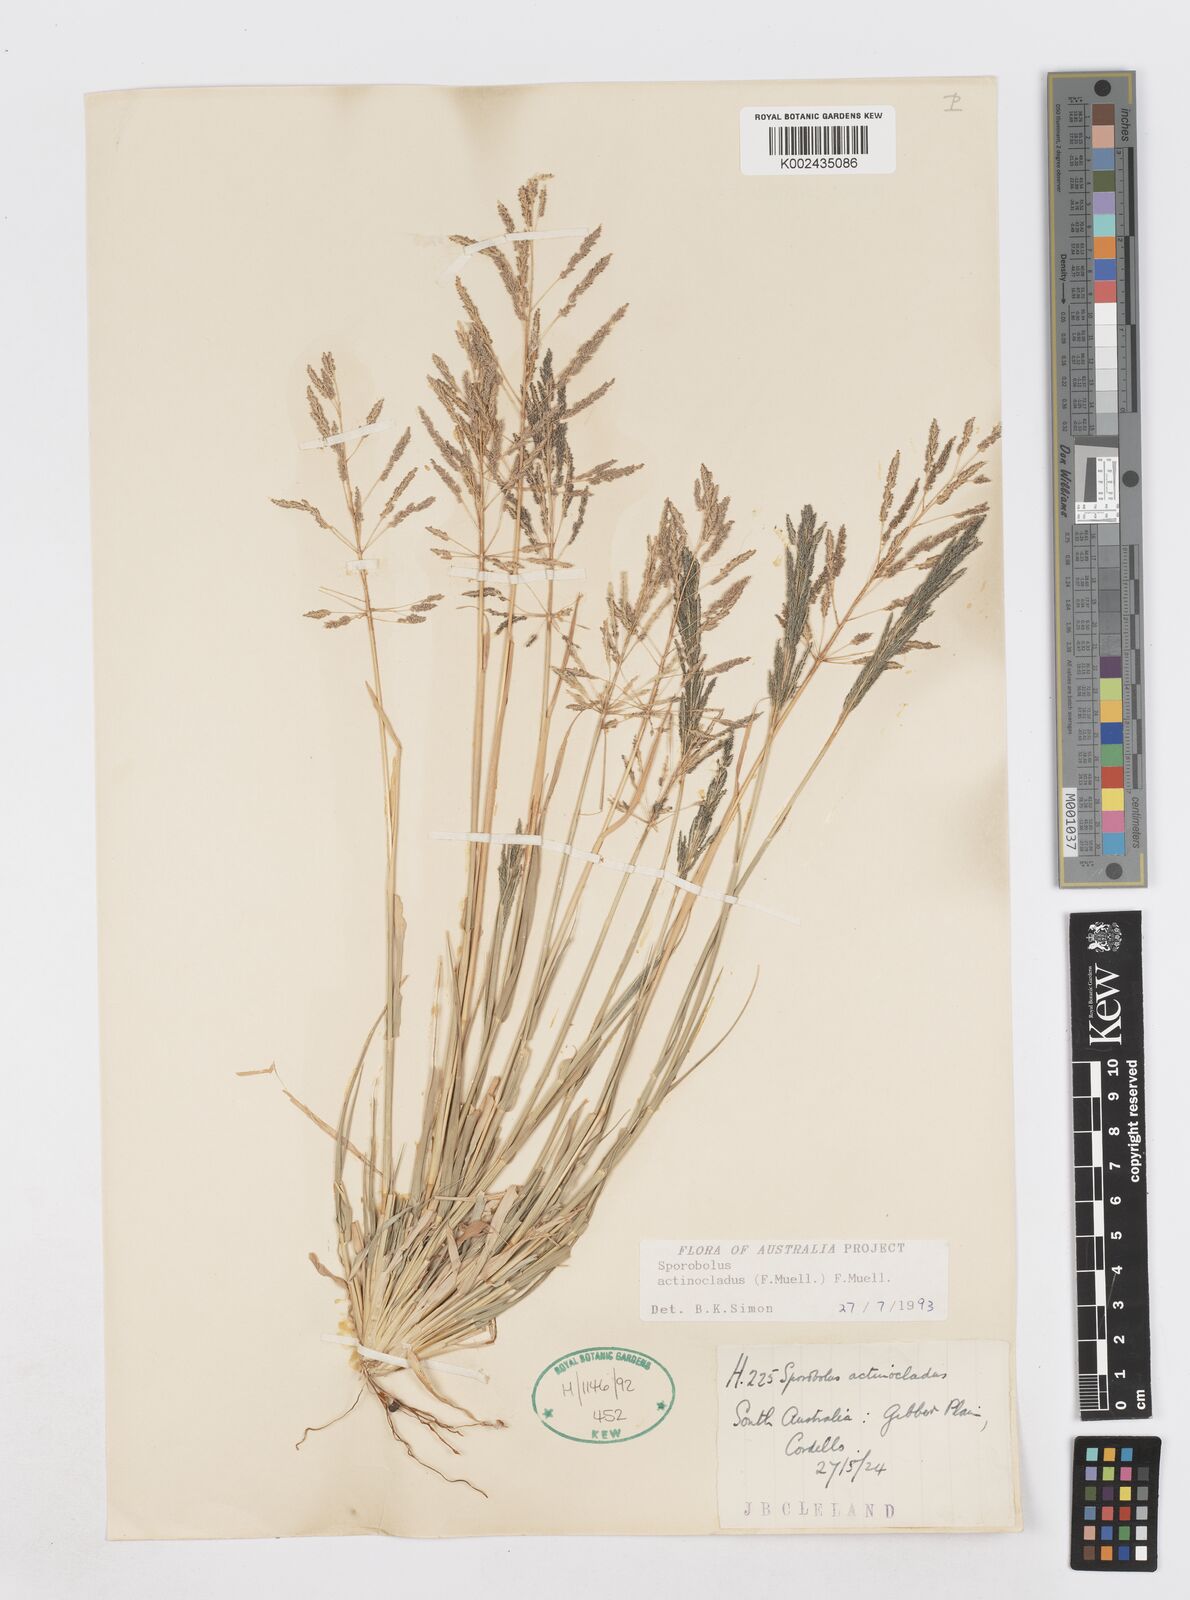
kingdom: Plantae
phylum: Tracheophyta
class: Liliopsida
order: Poales
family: Poaceae
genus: Sporobolus
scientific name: Sporobolus actinocladus
